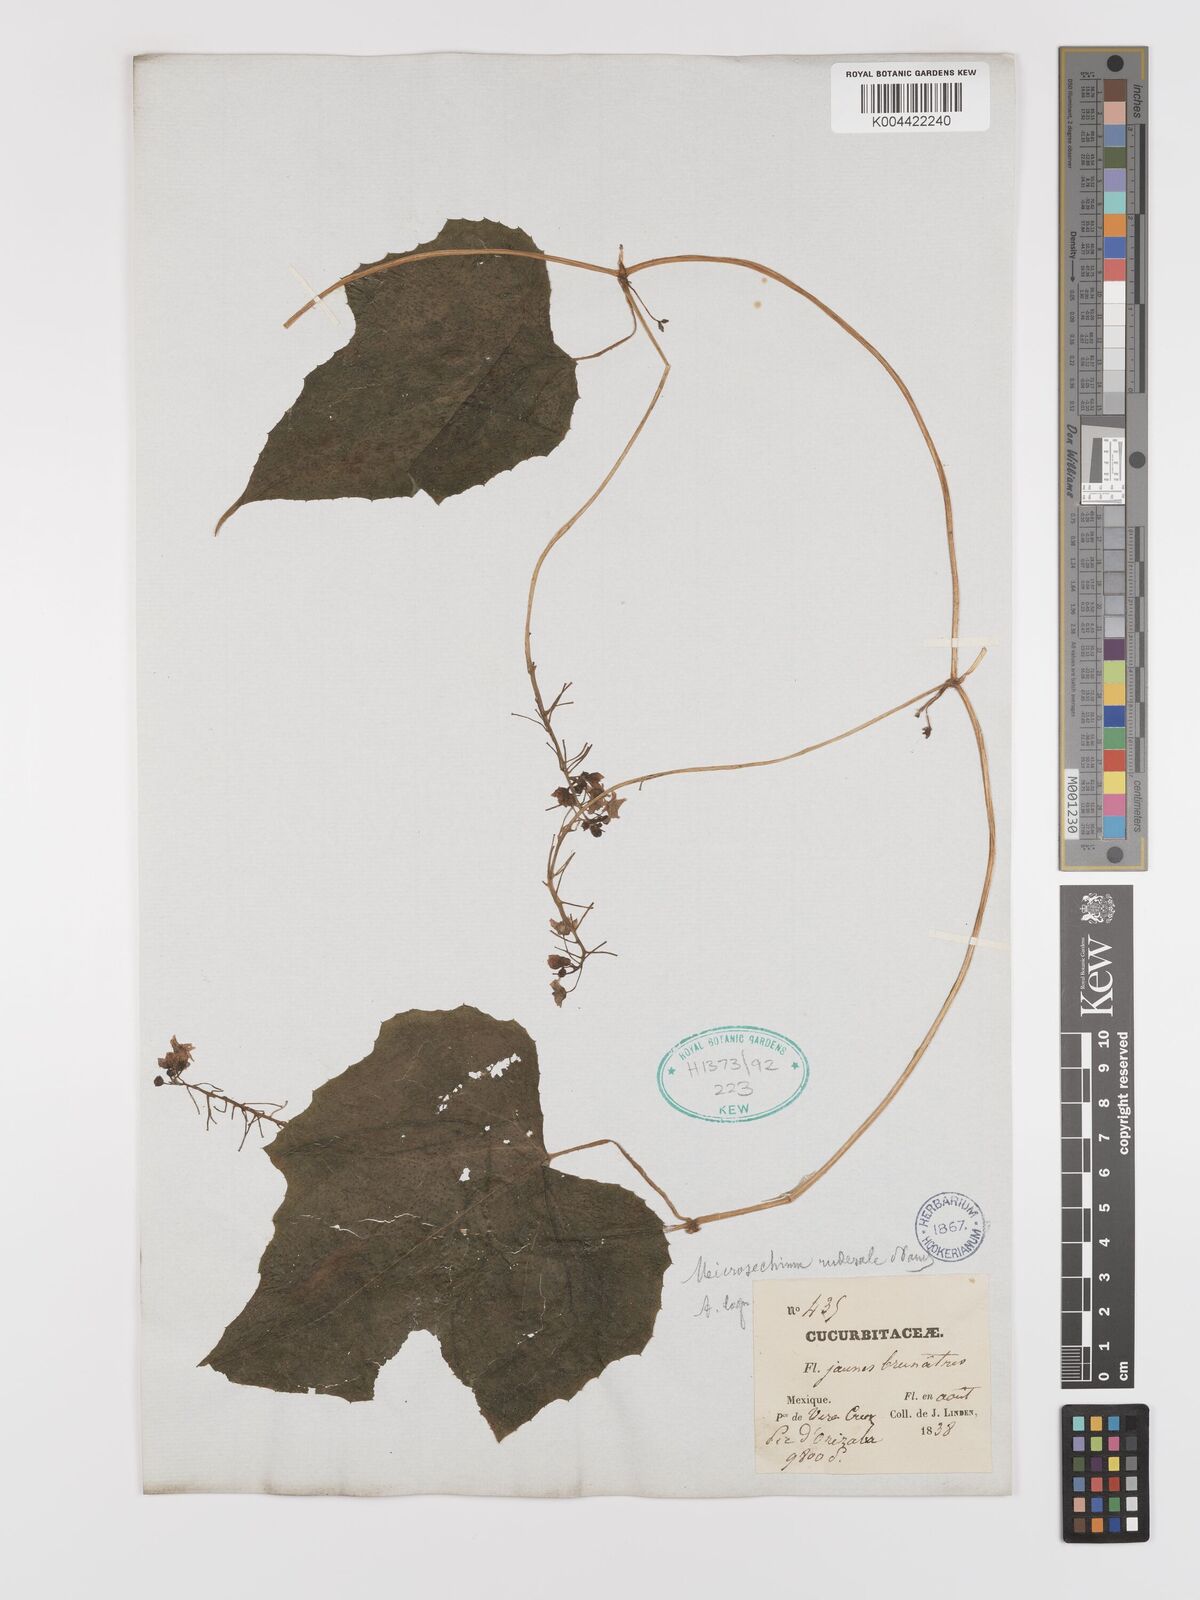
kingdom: Plantae
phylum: Tracheophyta
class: Magnoliopsida
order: Cucurbitales
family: Cucurbitaceae
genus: Microsechium
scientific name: Microsechium palmatum
